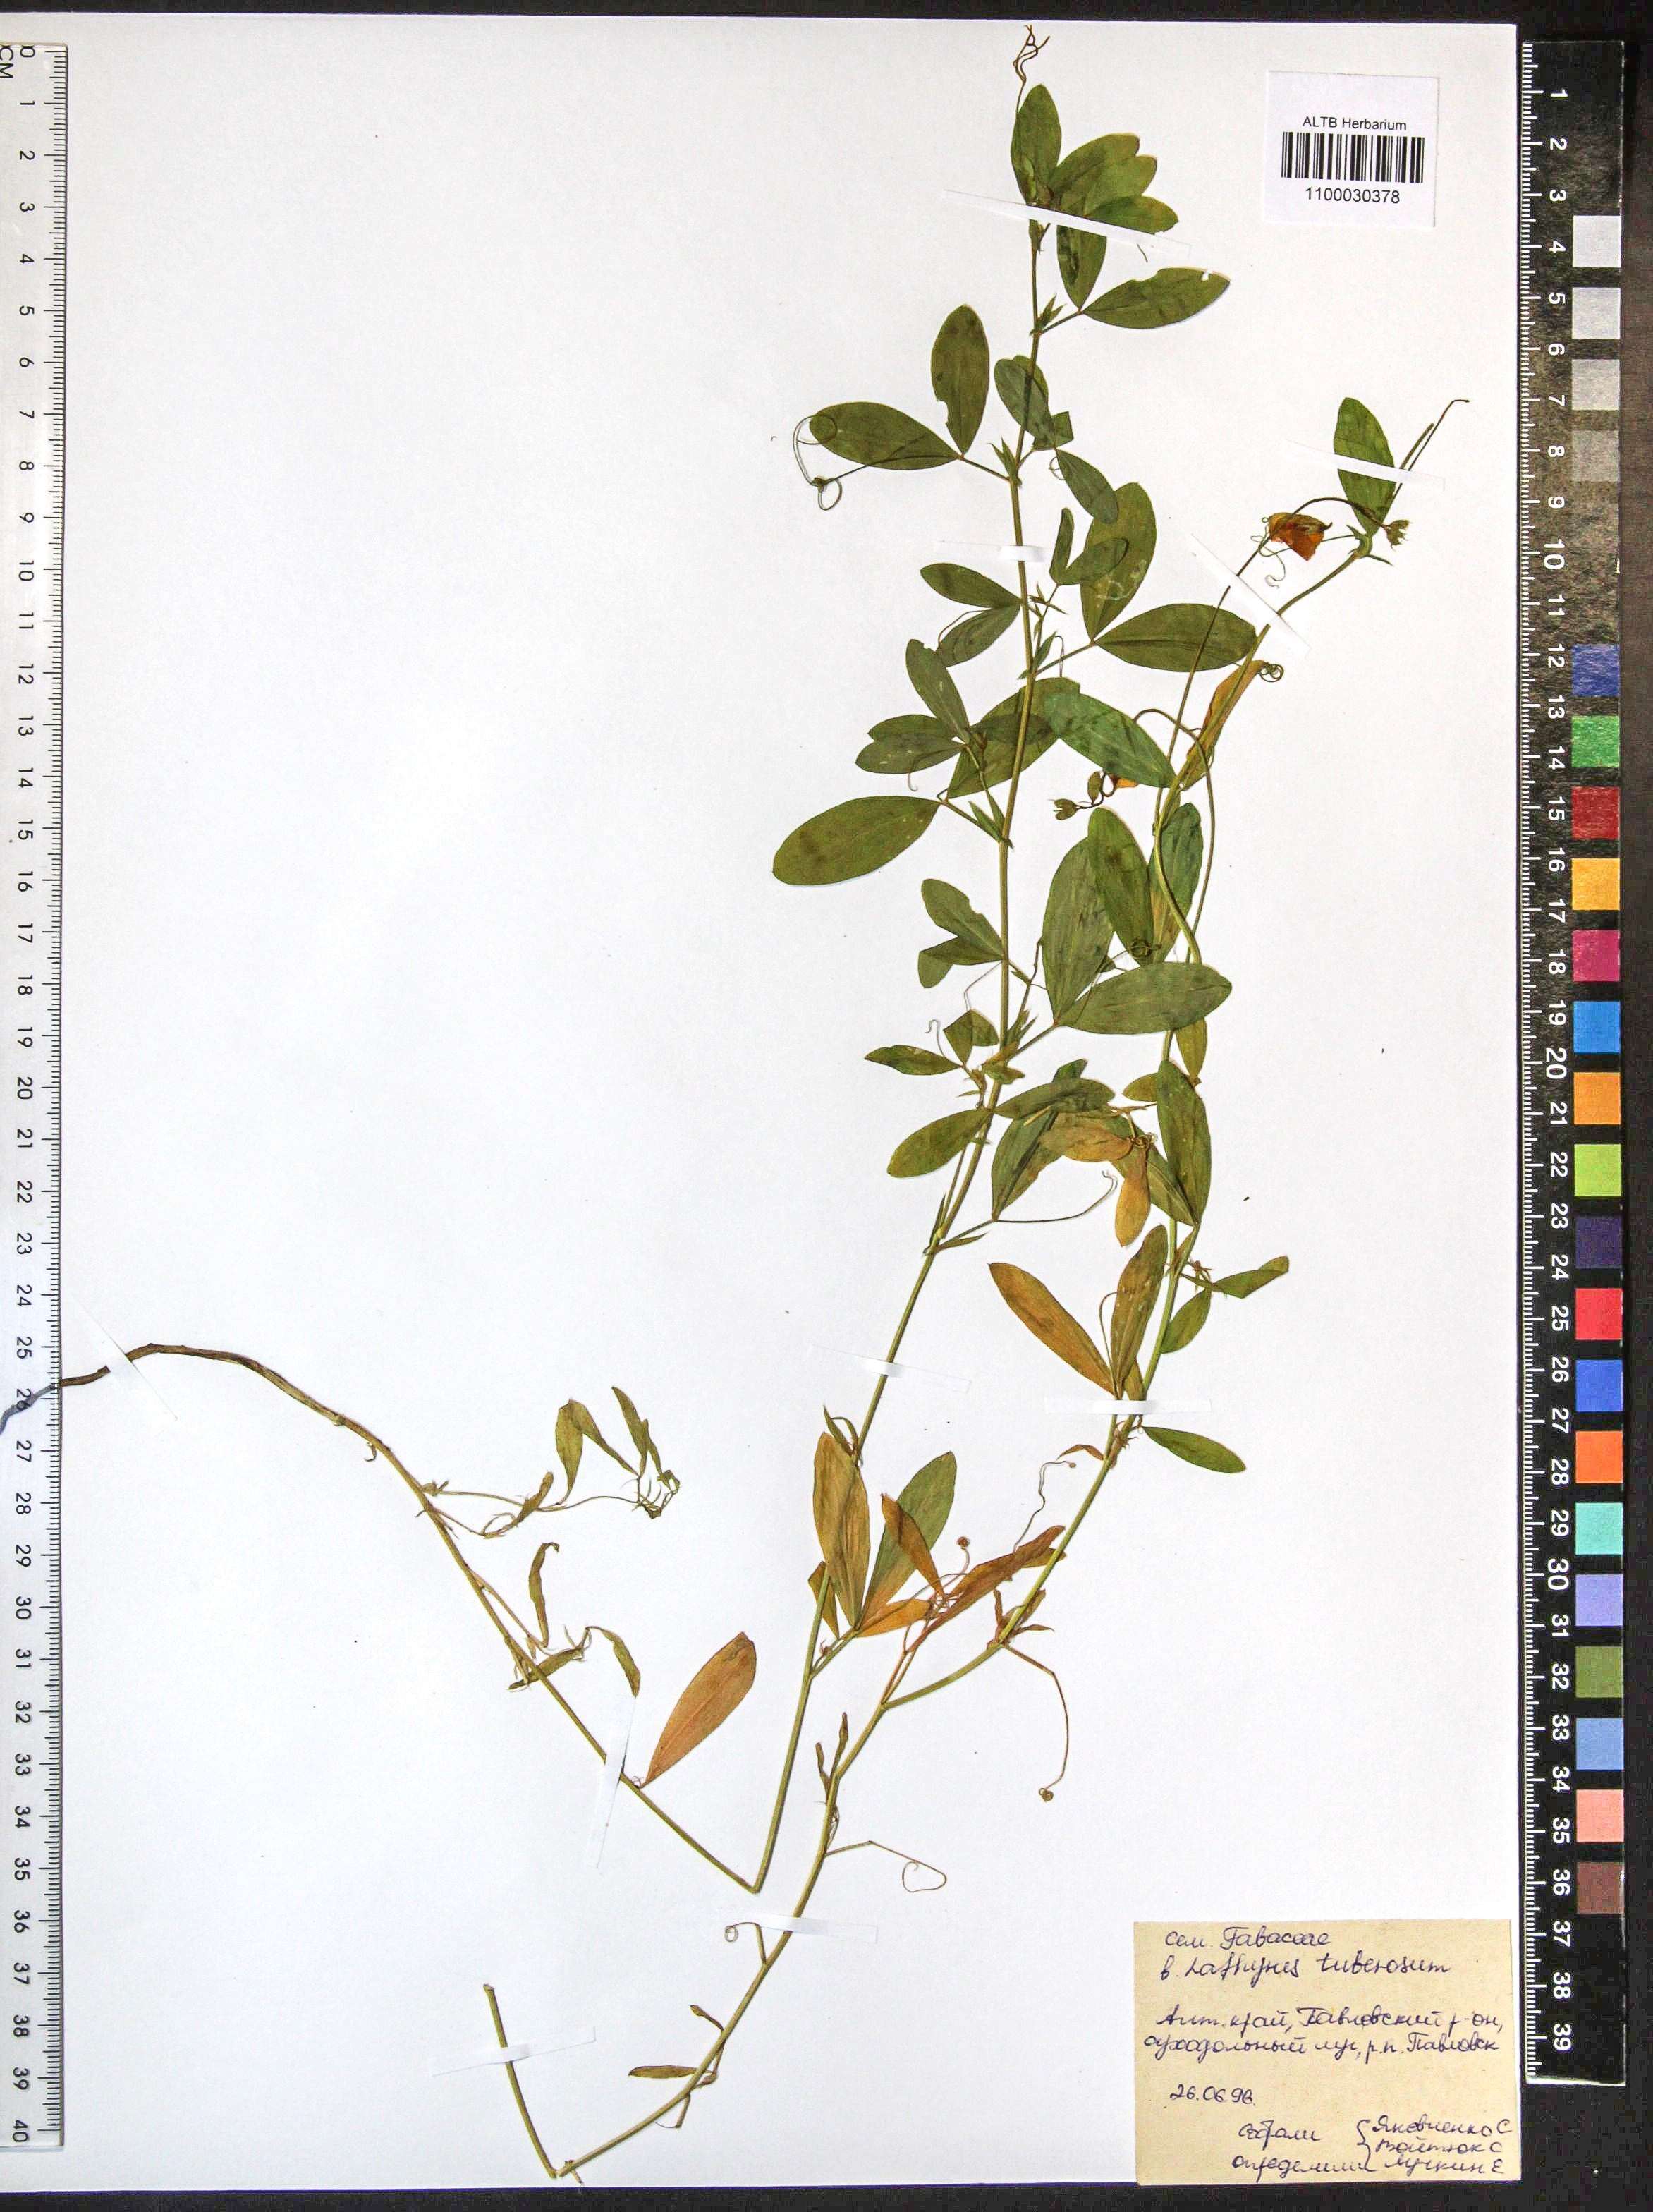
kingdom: Plantae
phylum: Tracheophyta
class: Magnoliopsida
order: Fabales
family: Fabaceae
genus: Lathyrus
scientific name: Lathyrus tuberosus
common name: Tuberous pea
